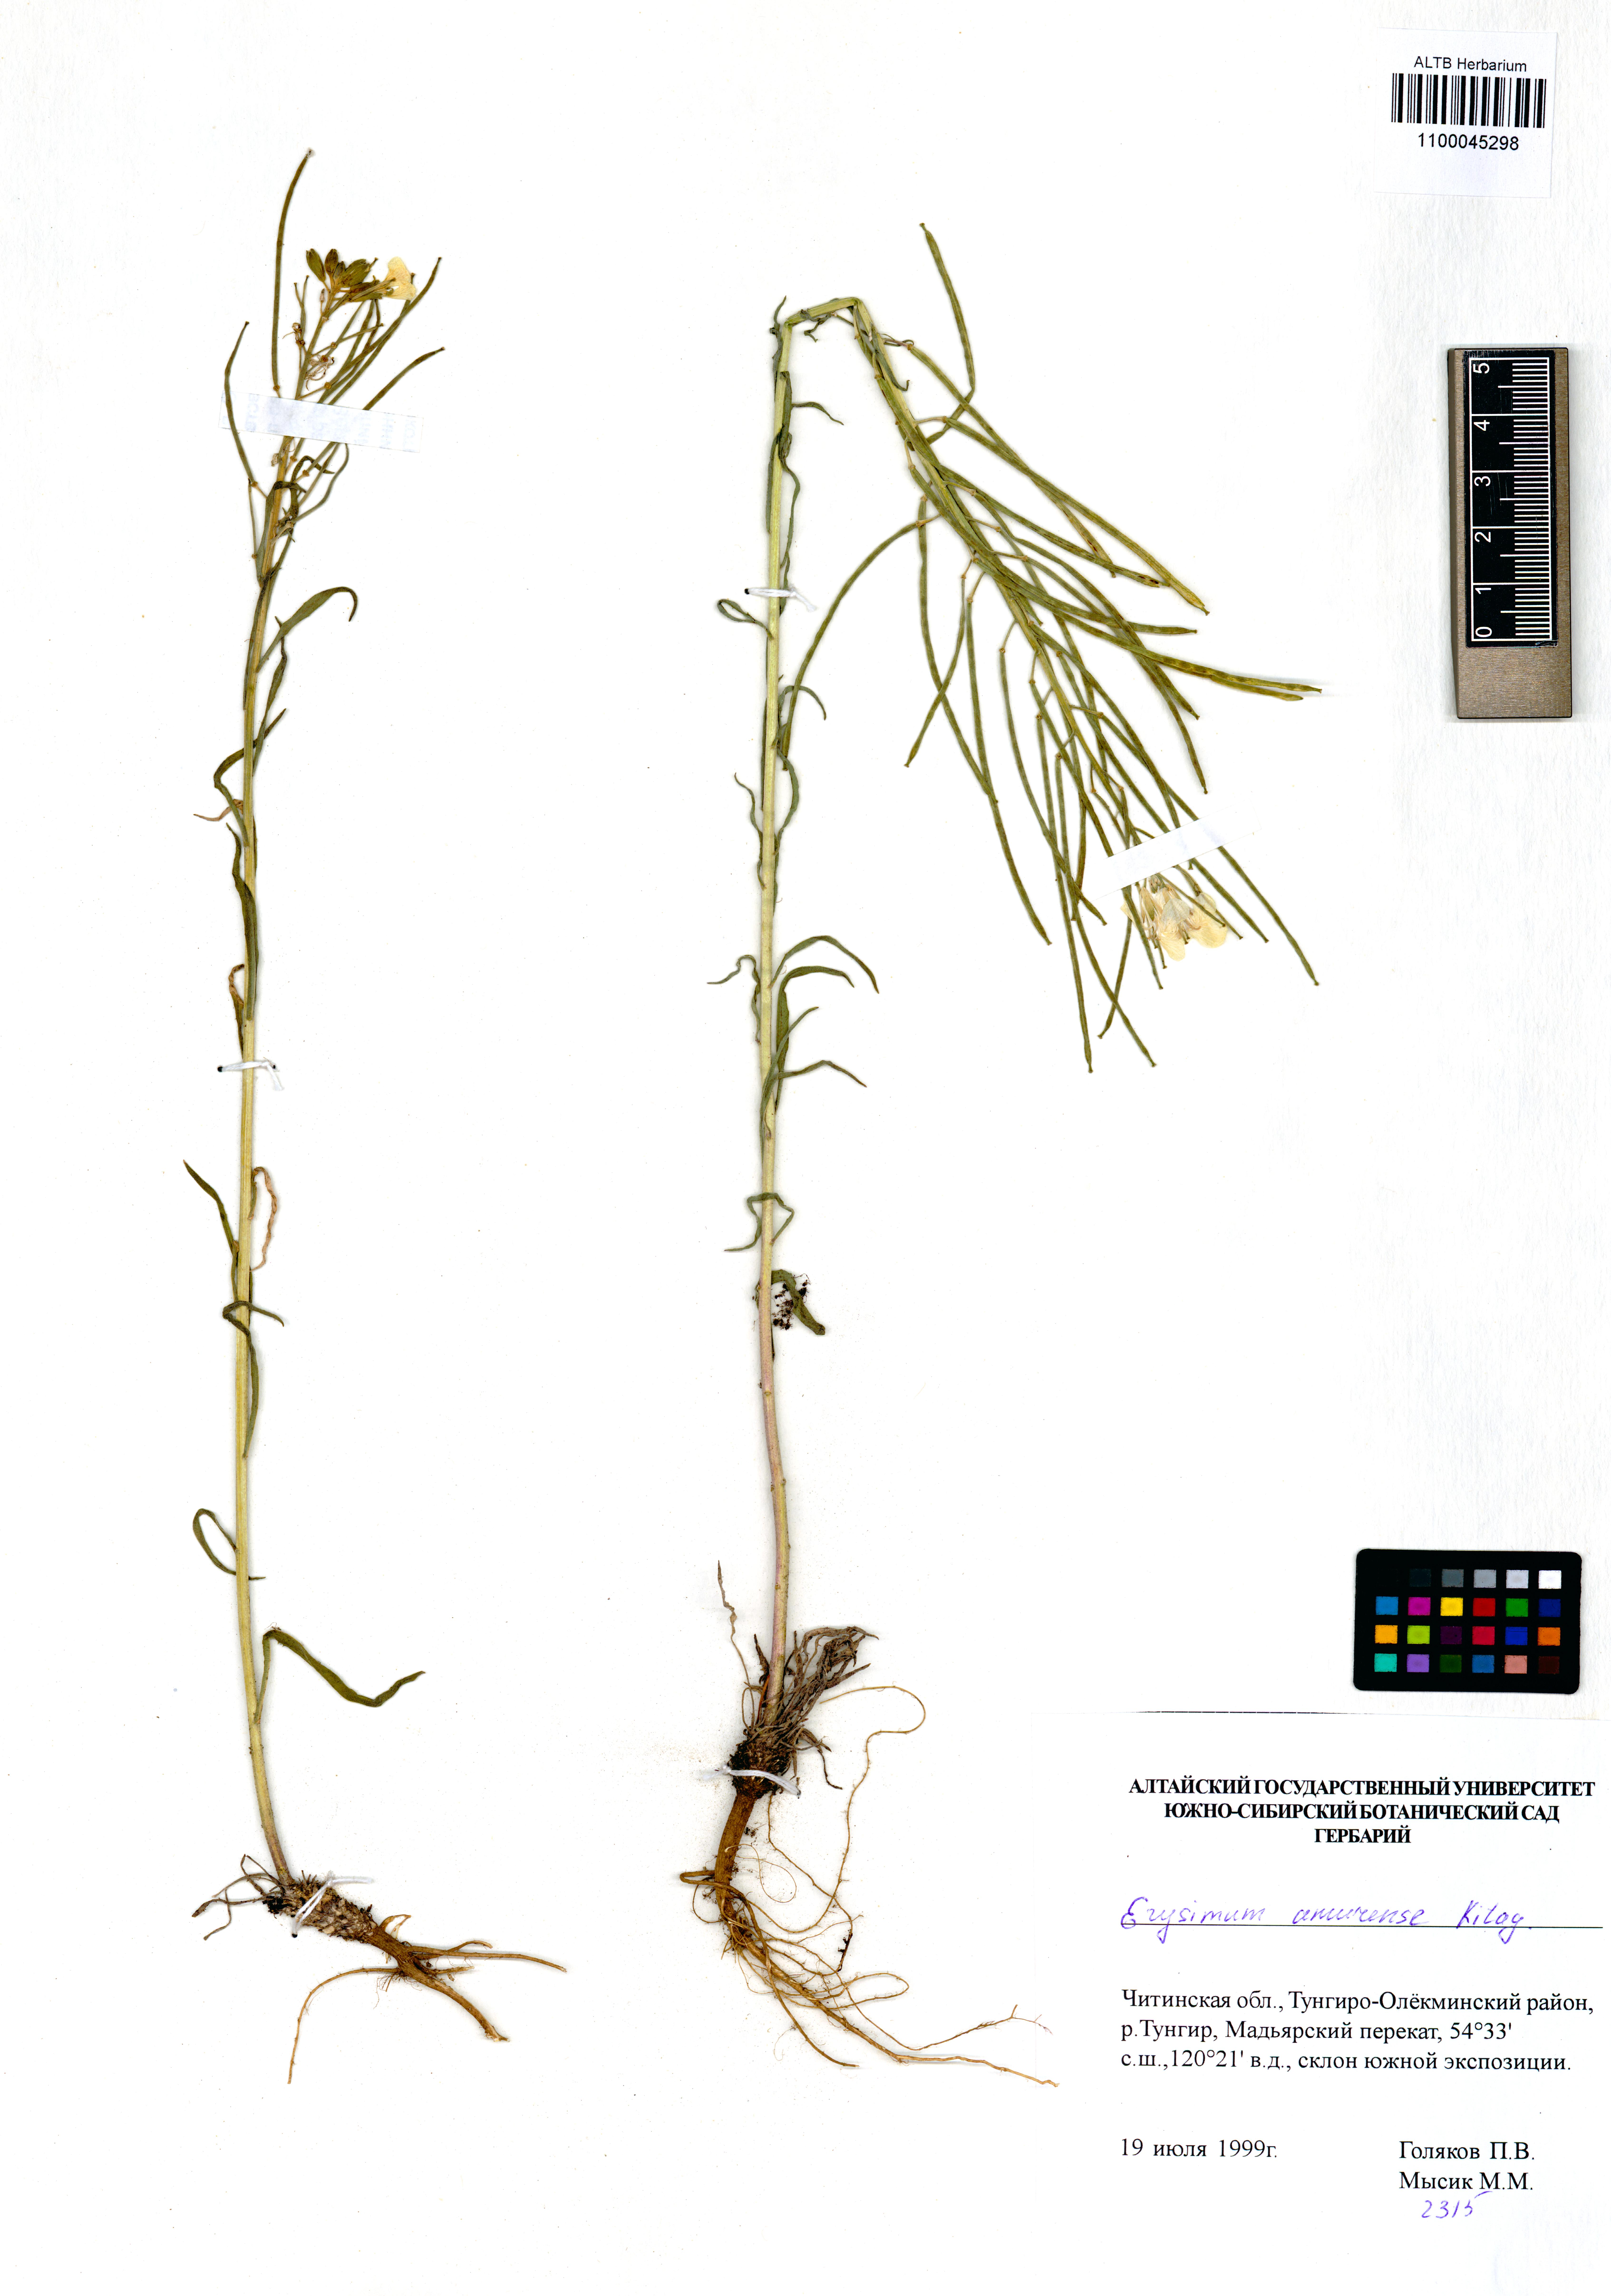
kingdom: Plantae
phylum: Tracheophyta
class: Magnoliopsida
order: Brassicales
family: Brassicaceae
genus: Erysimum
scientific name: Erysimum amurense
